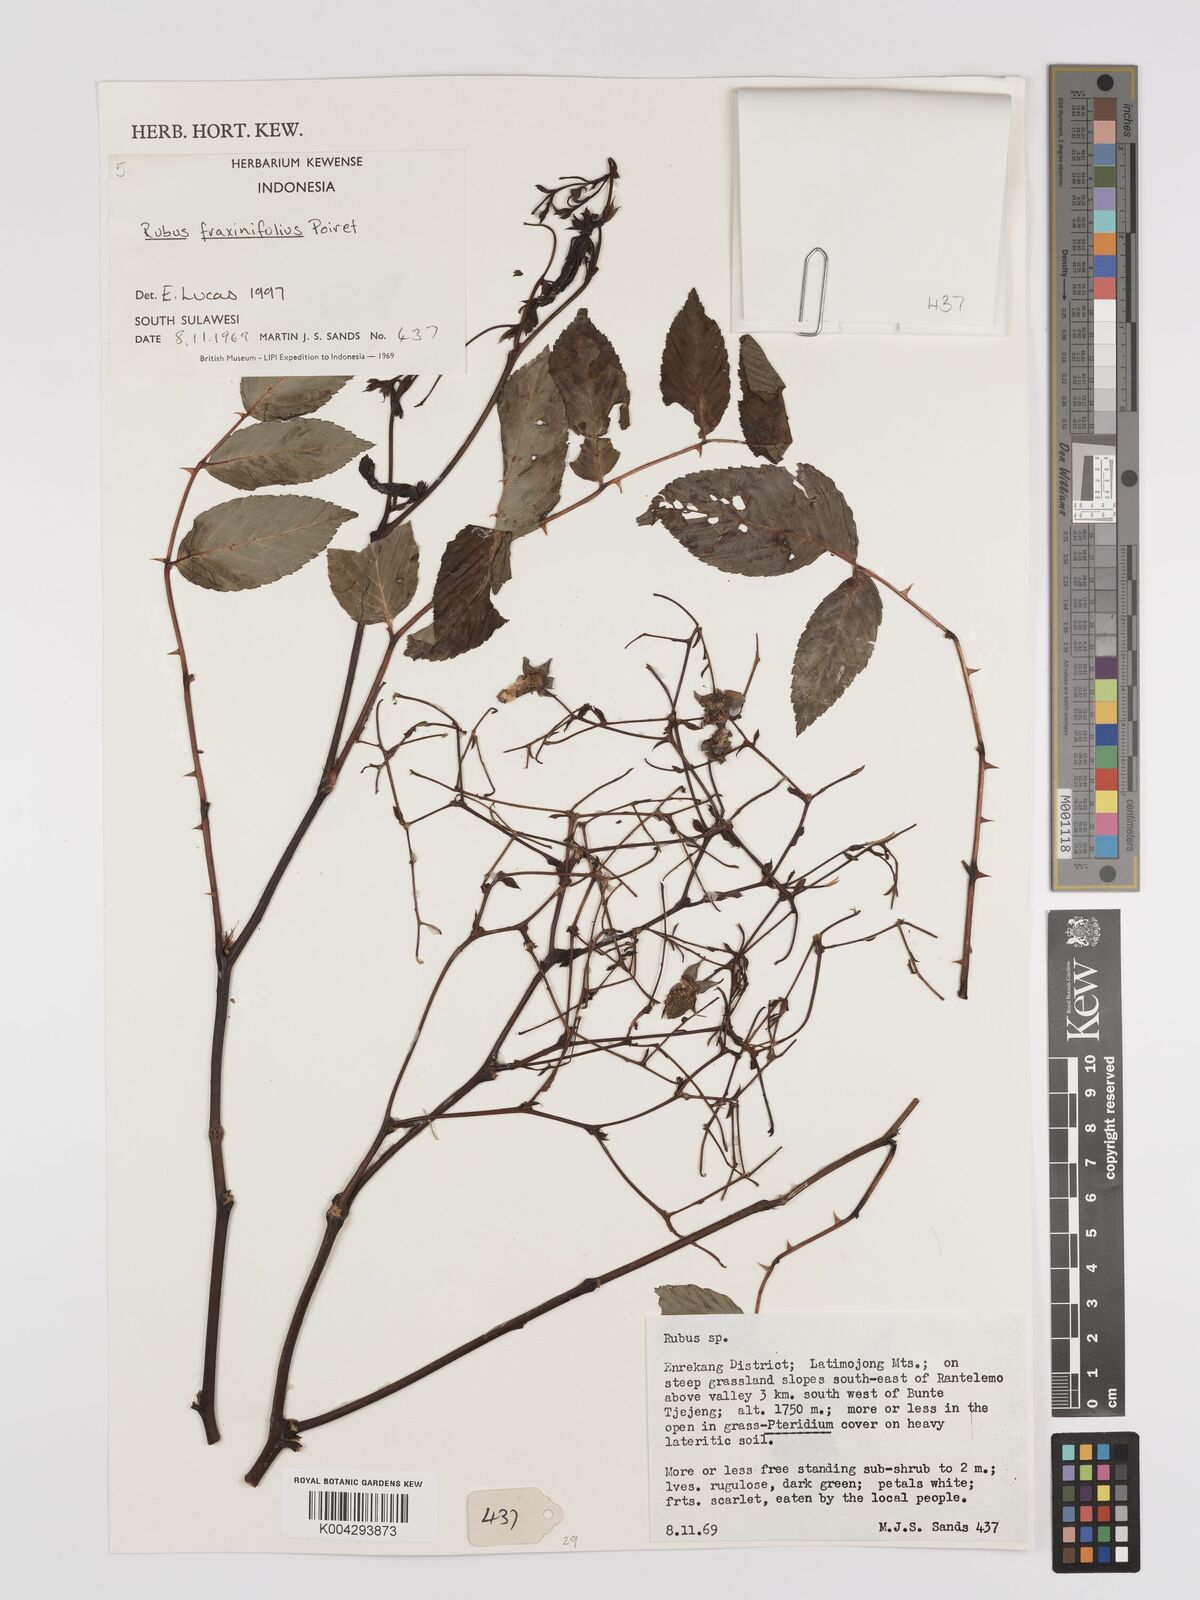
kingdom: Plantae
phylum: Tracheophyta
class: Magnoliopsida
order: Rosales
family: Rosaceae
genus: Rubus
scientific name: Rubus fraxinifolius
